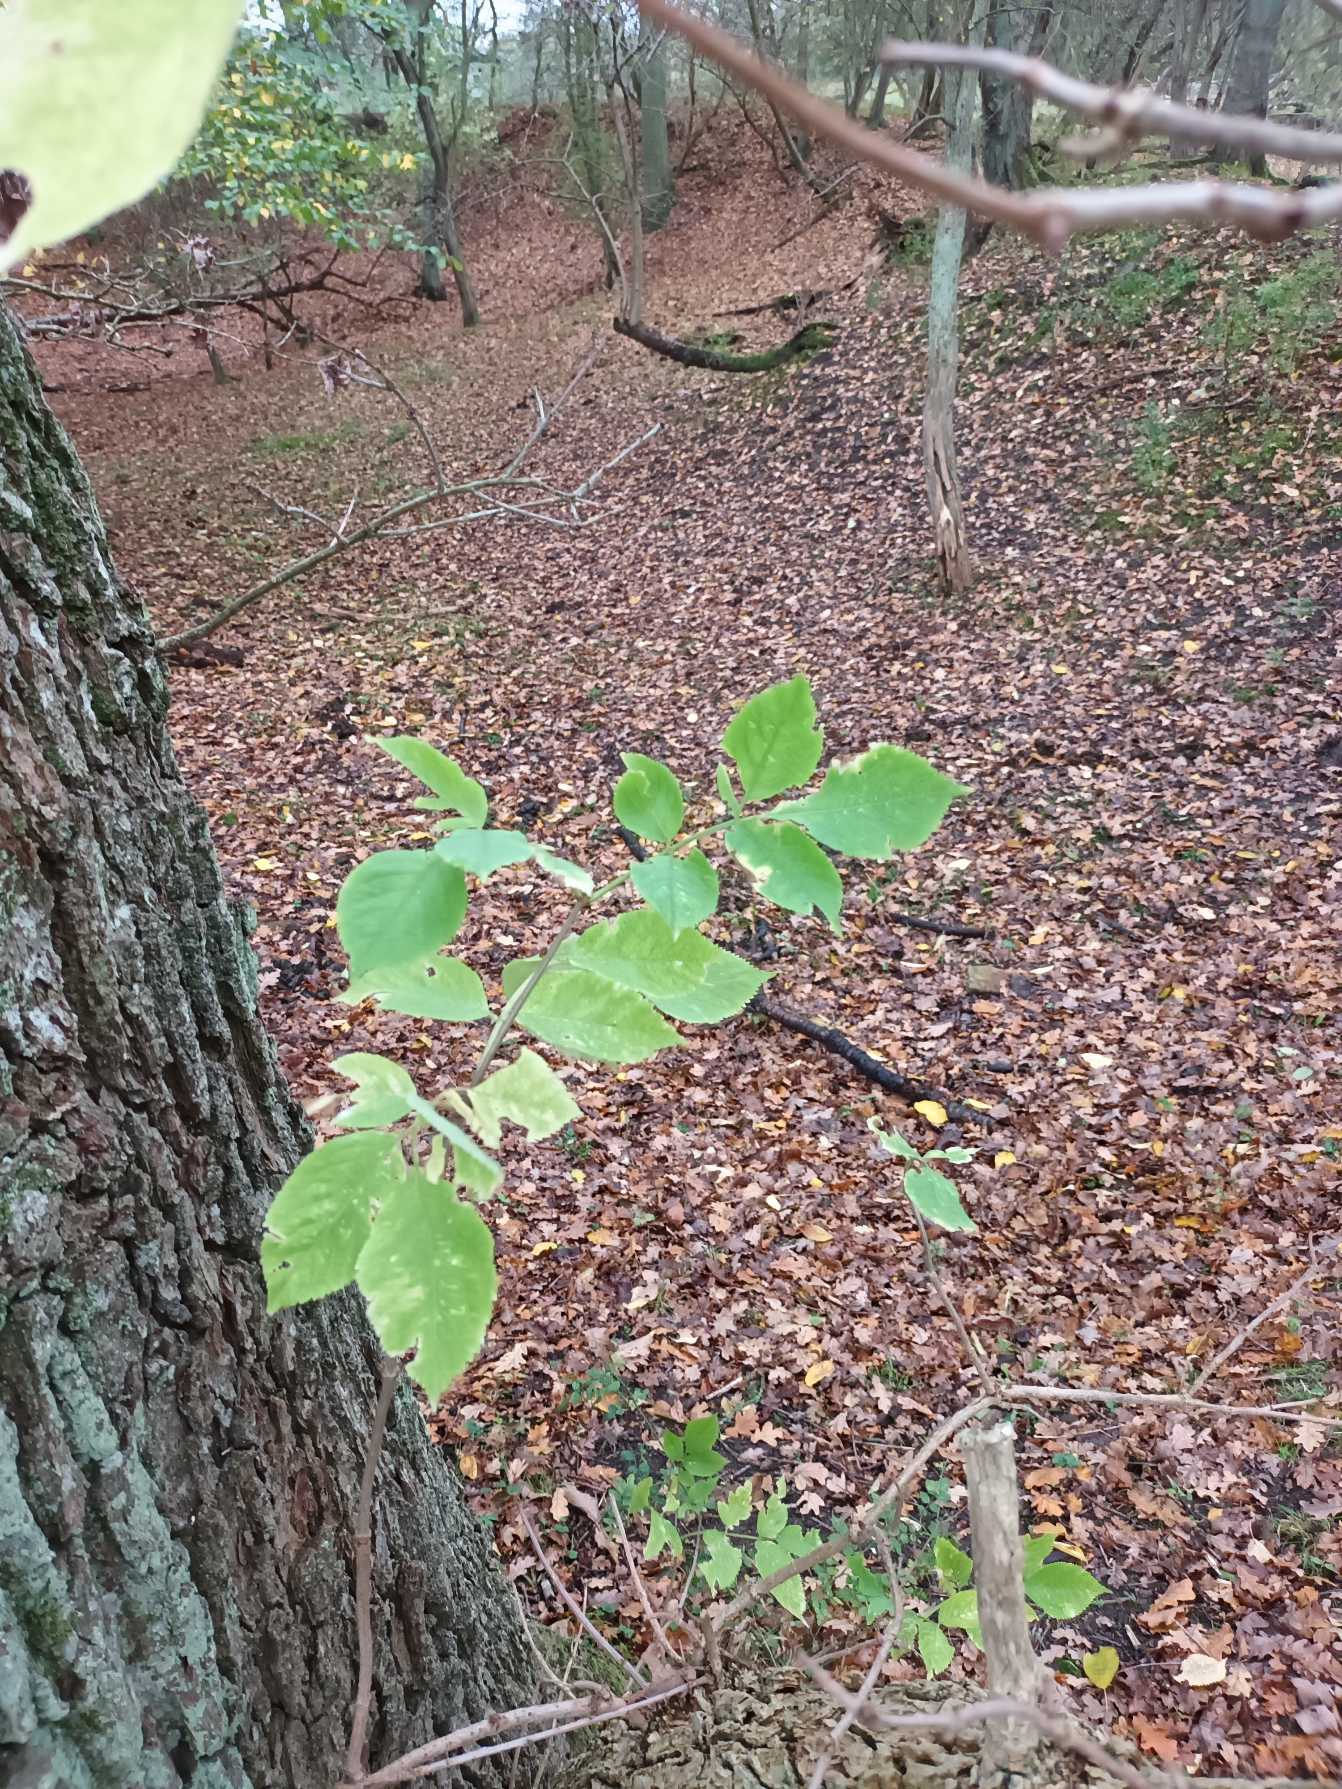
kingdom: Plantae
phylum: Tracheophyta
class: Magnoliopsida
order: Dipsacales
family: Viburnaceae
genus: Sambucus
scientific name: Sambucus nigra
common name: Almindelig hyld
